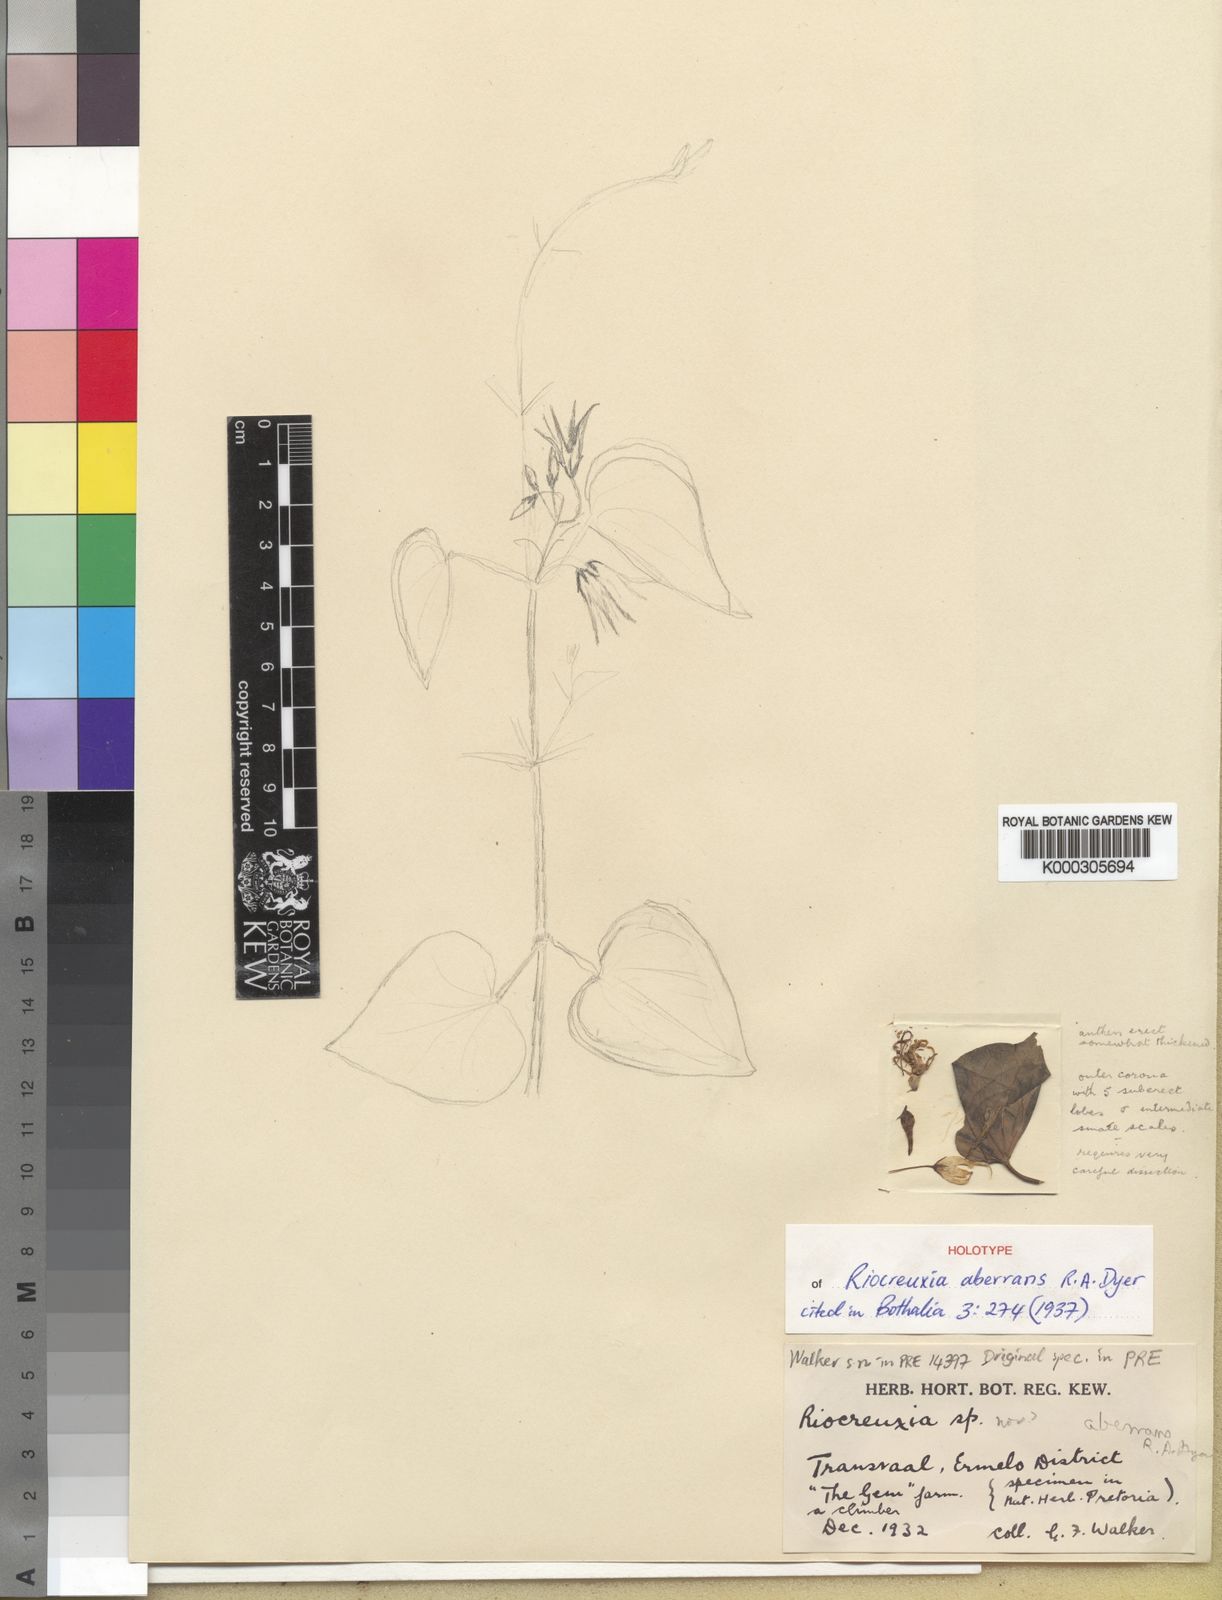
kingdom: Plantae
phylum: Tracheophyta
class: Magnoliopsida
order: Gentianales
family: Apocynaceae
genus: Riocreuxia
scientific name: Riocreuxia aberrans
